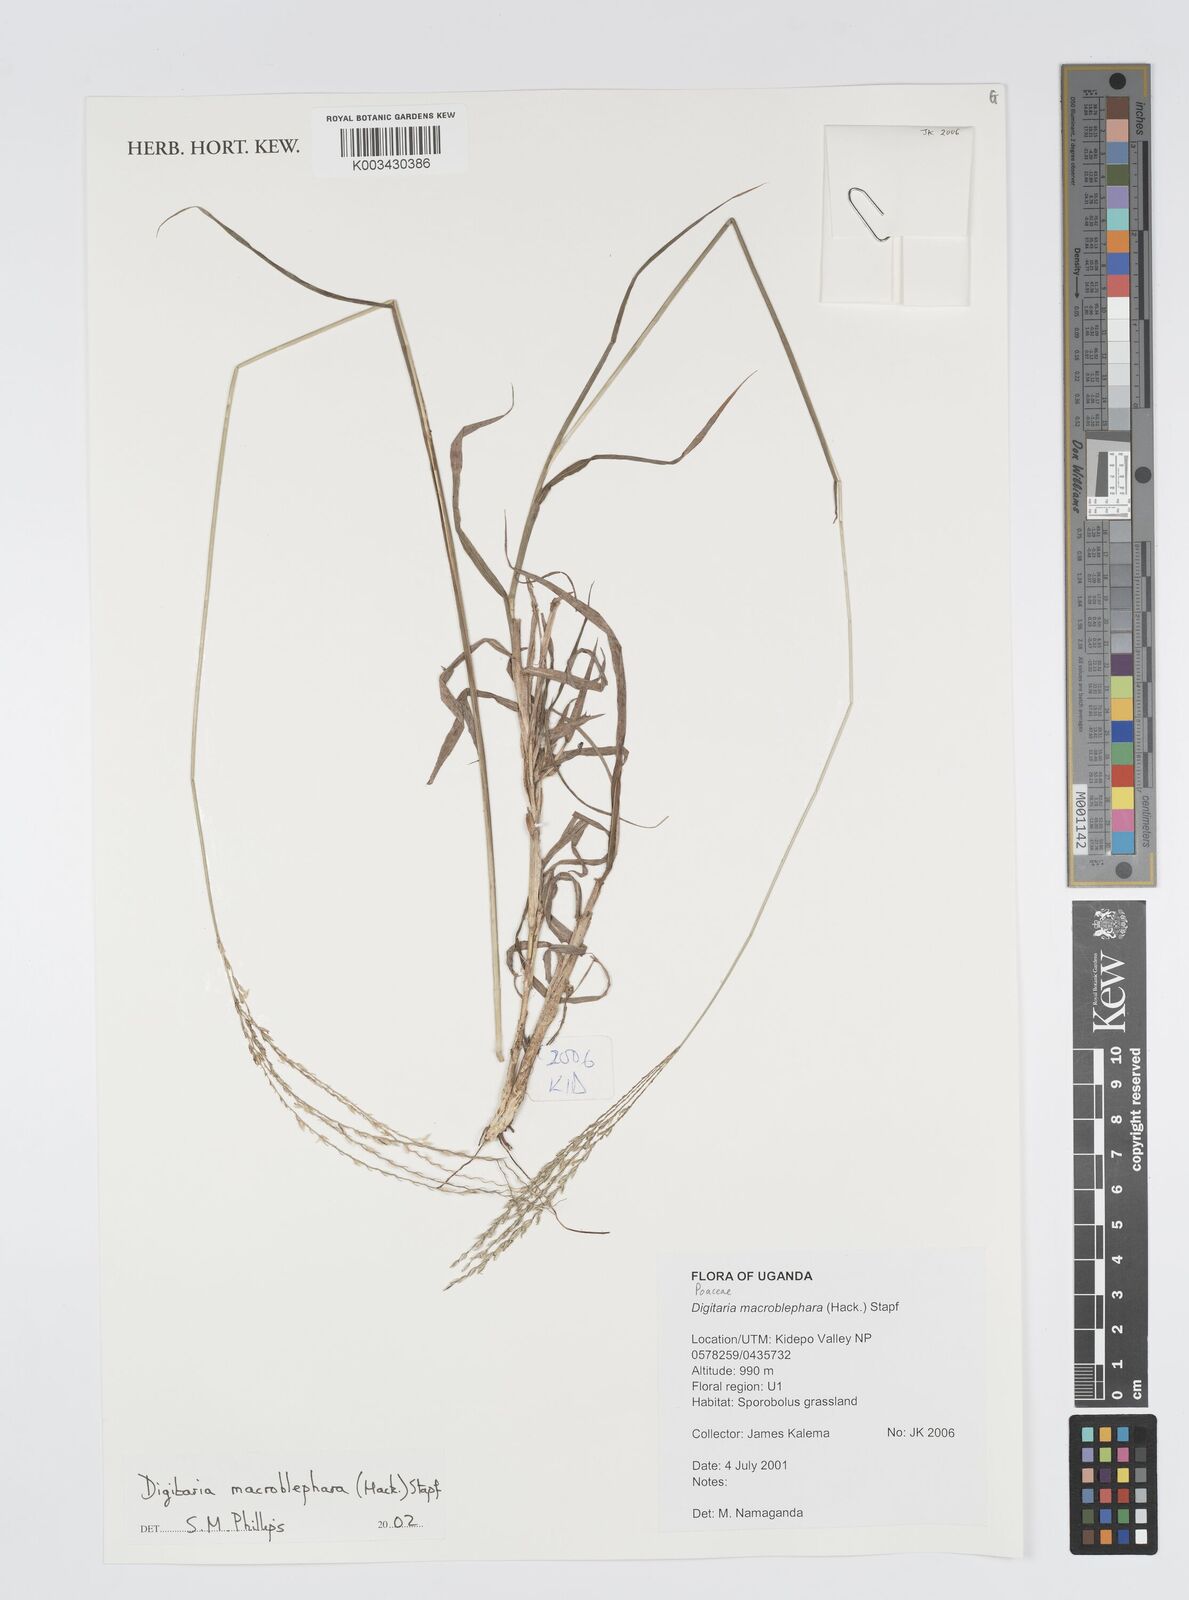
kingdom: Plantae
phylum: Tracheophyta
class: Liliopsida
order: Poales
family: Poaceae
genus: Digitaria
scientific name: Digitaria macroblephara
